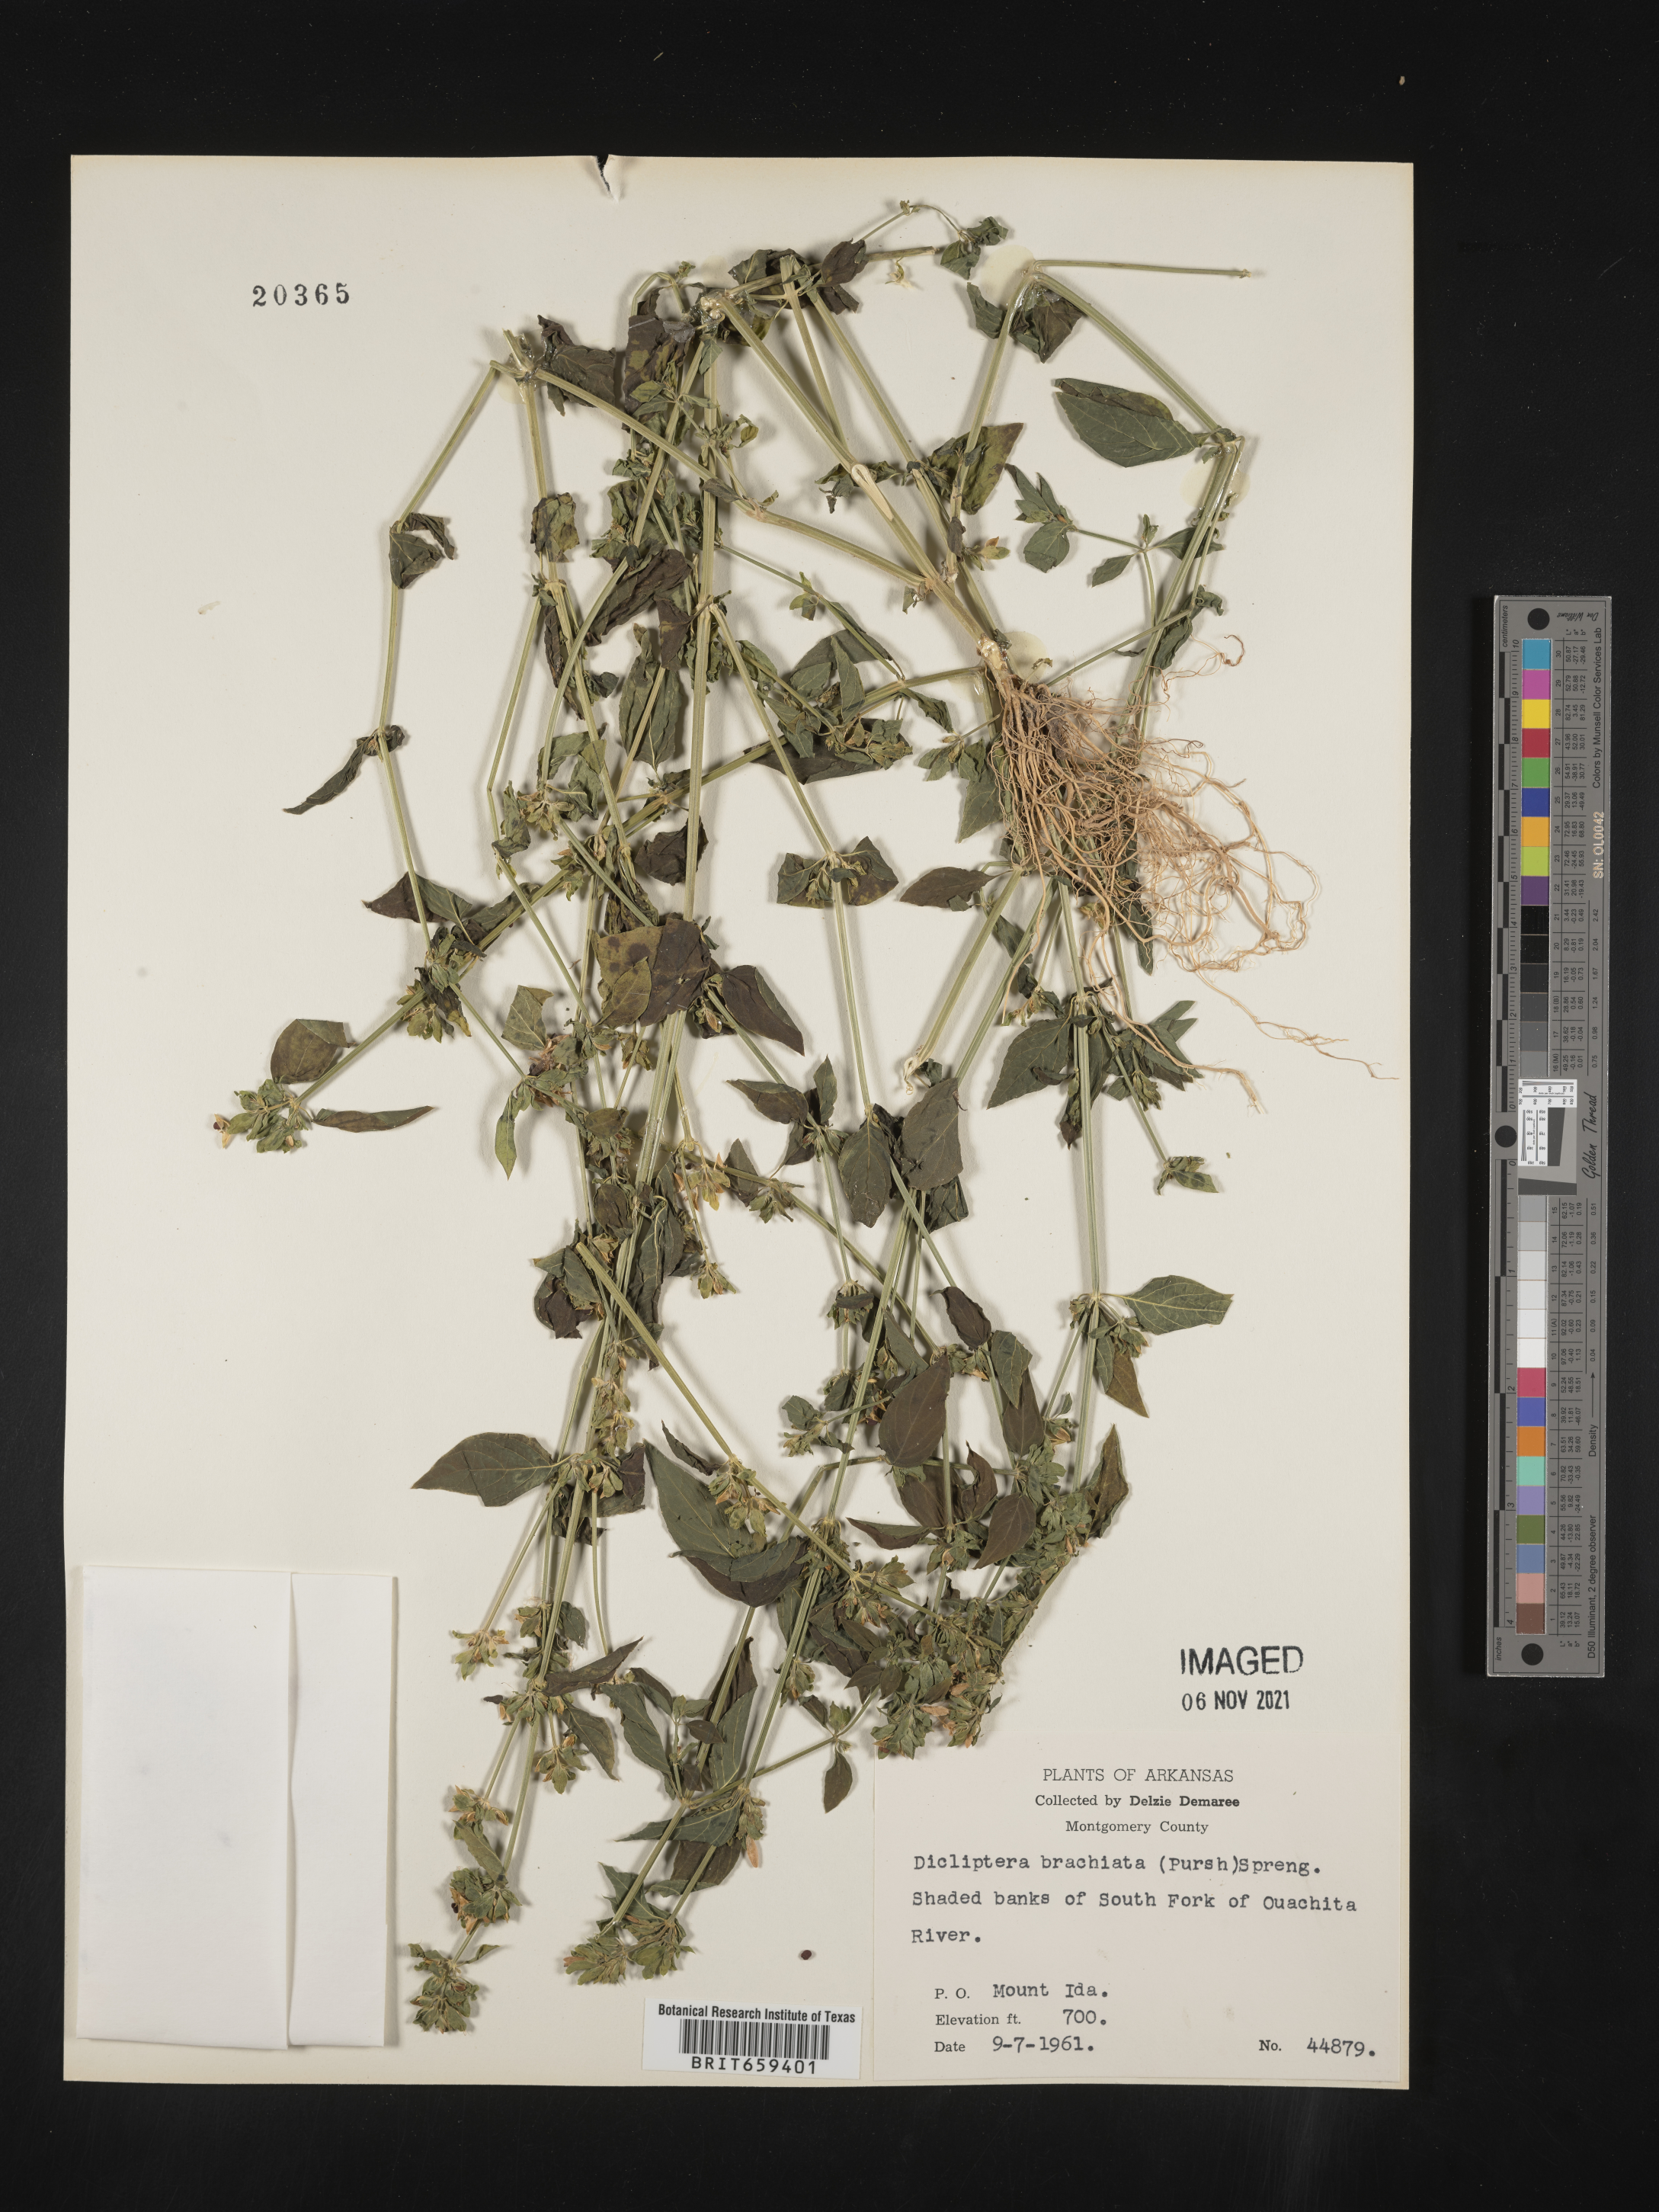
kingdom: Plantae
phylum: Tracheophyta
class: Magnoliopsida
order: Lamiales
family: Acanthaceae
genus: Dicliptera
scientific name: Dicliptera brachiata
